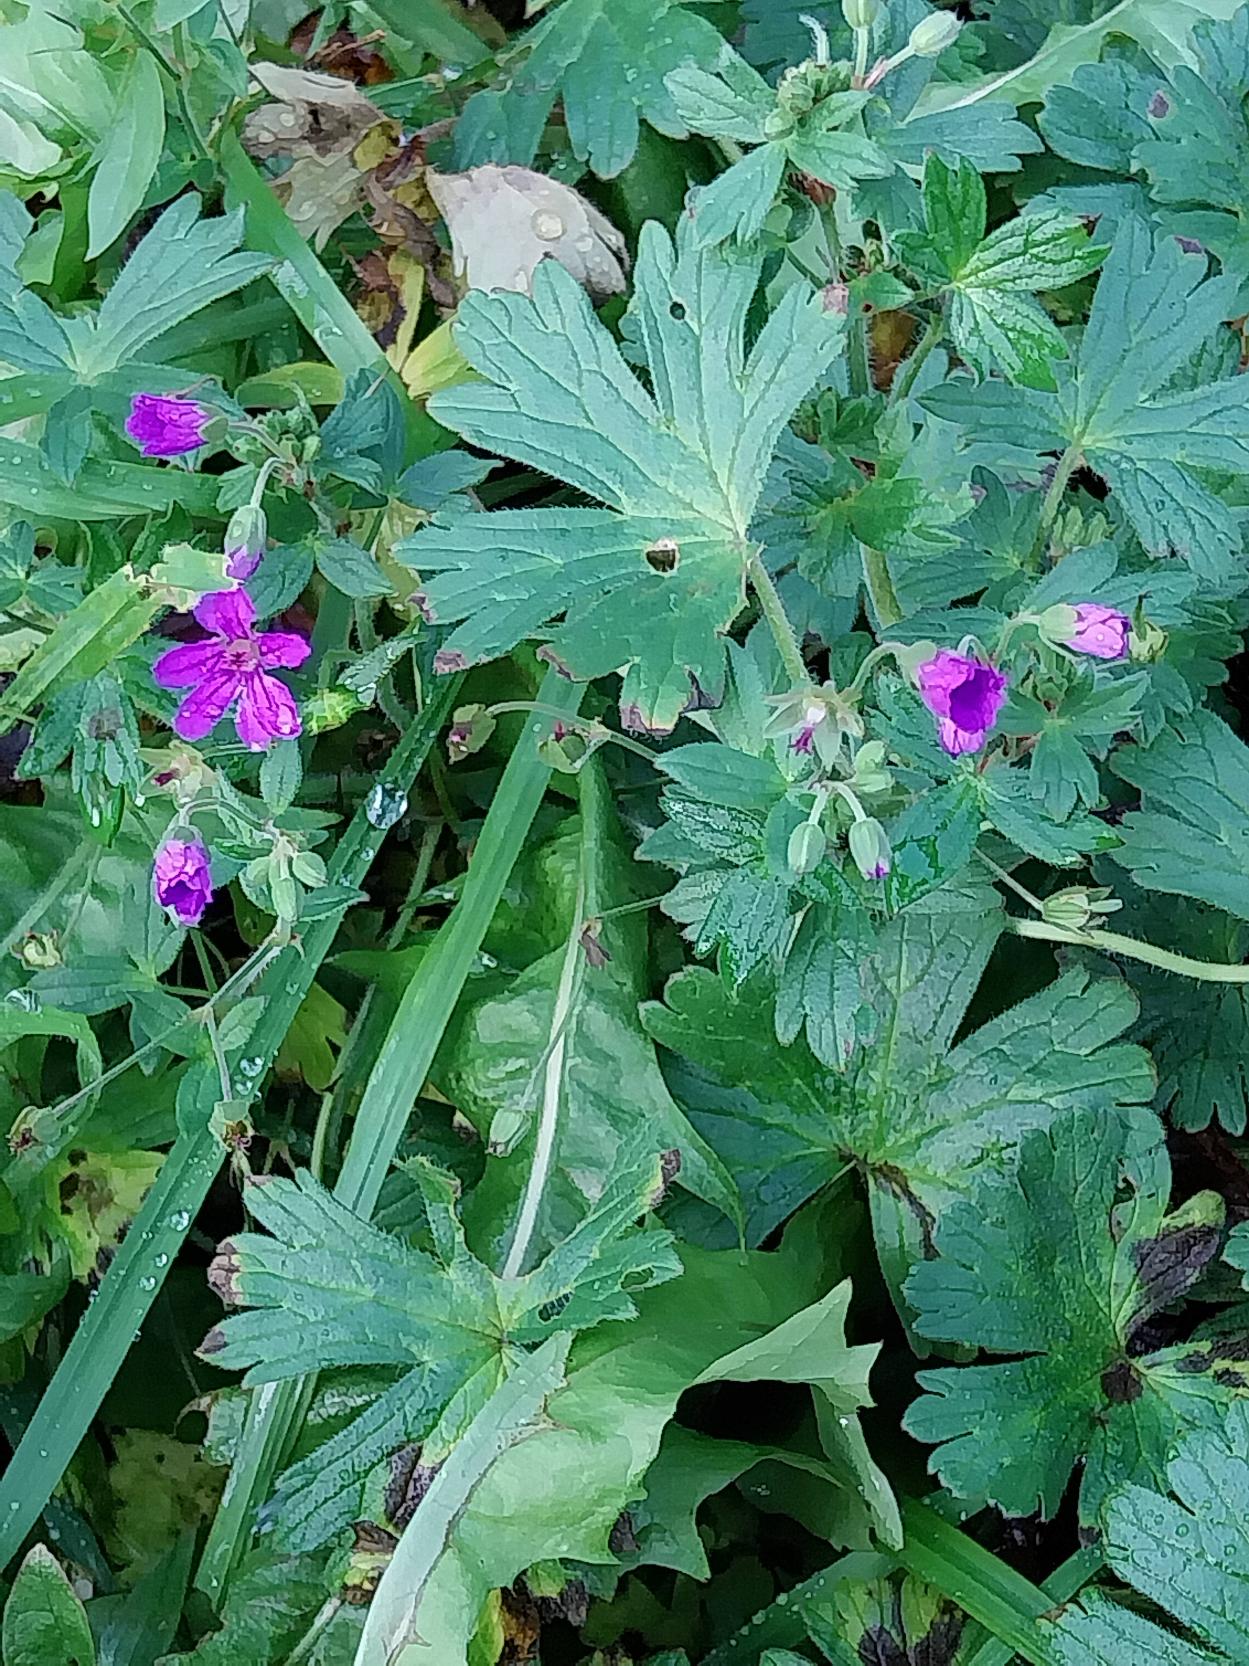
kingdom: Plantae
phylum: Tracheophyta
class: Magnoliopsida
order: Geraniales
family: Geraniaceae
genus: Geranium
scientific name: Geranium pyrenaicum
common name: Pyrenæisk storkenæb
